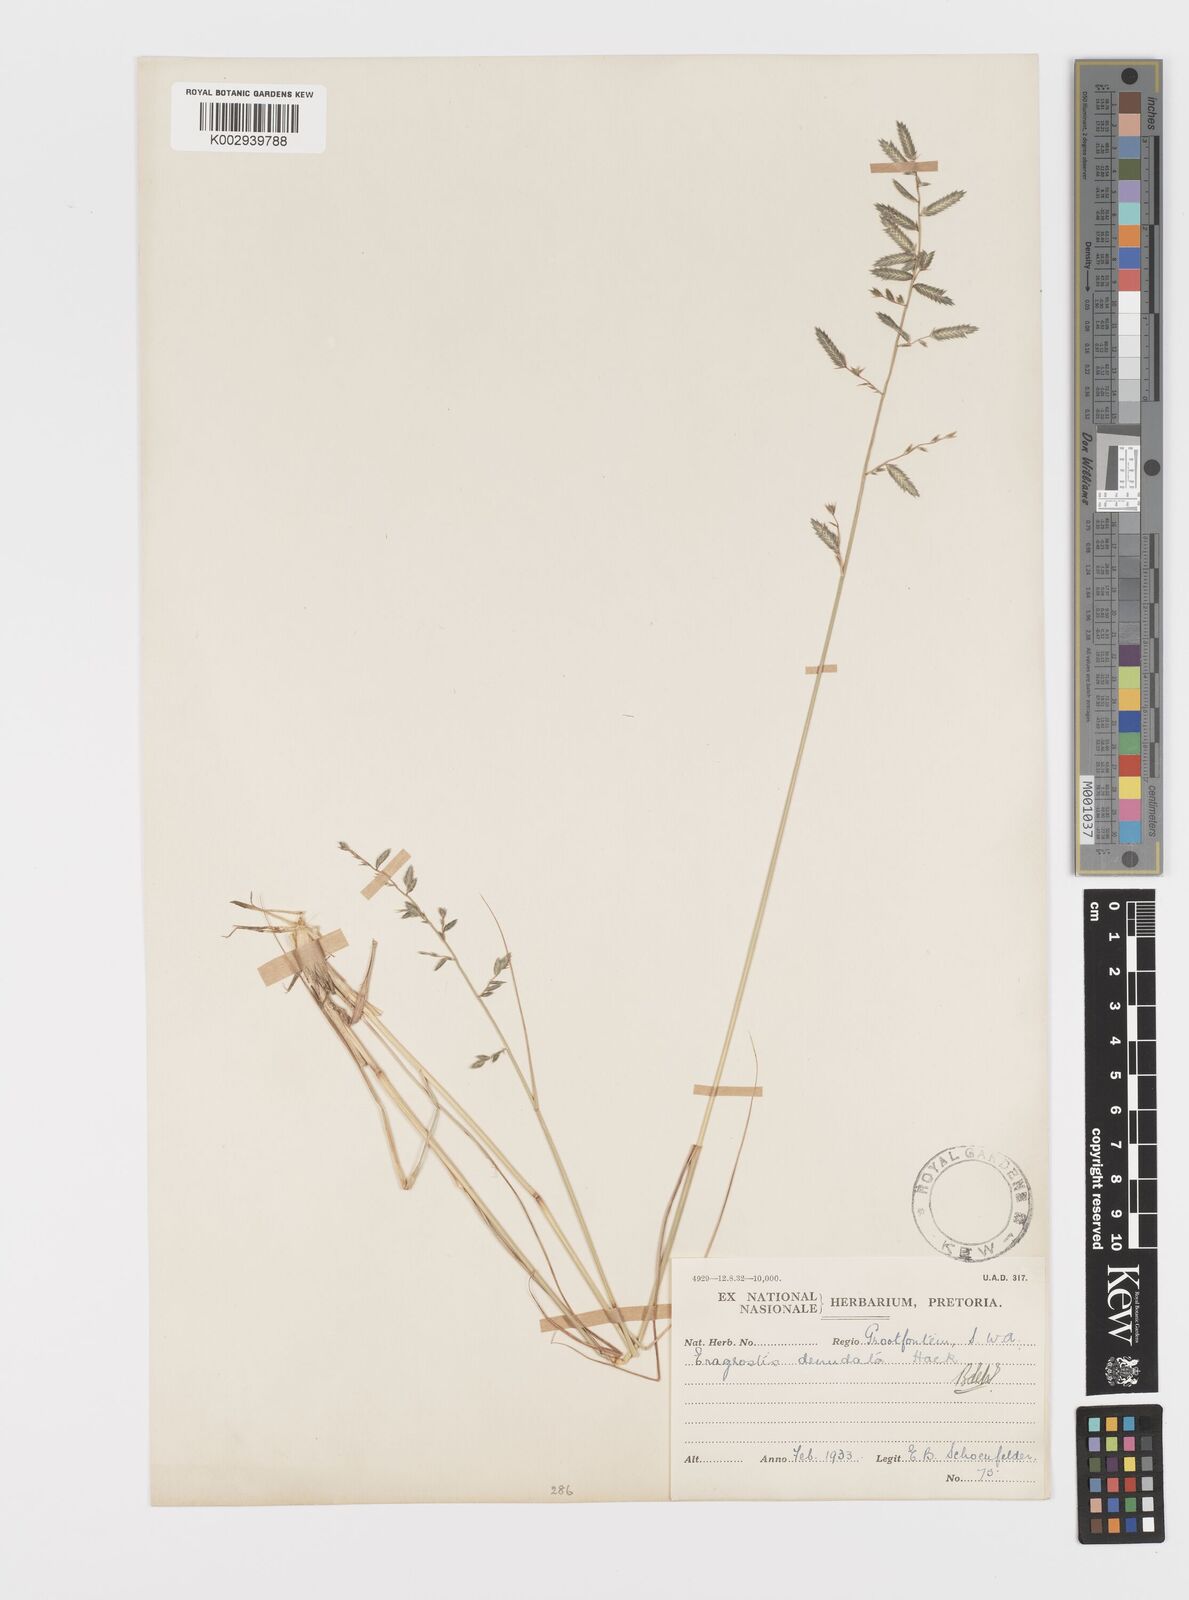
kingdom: Plantae
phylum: Tracheophyta
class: Liliopsida
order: Poales
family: Poaceae
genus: Eragrostis
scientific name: Eragrostis nindensis
